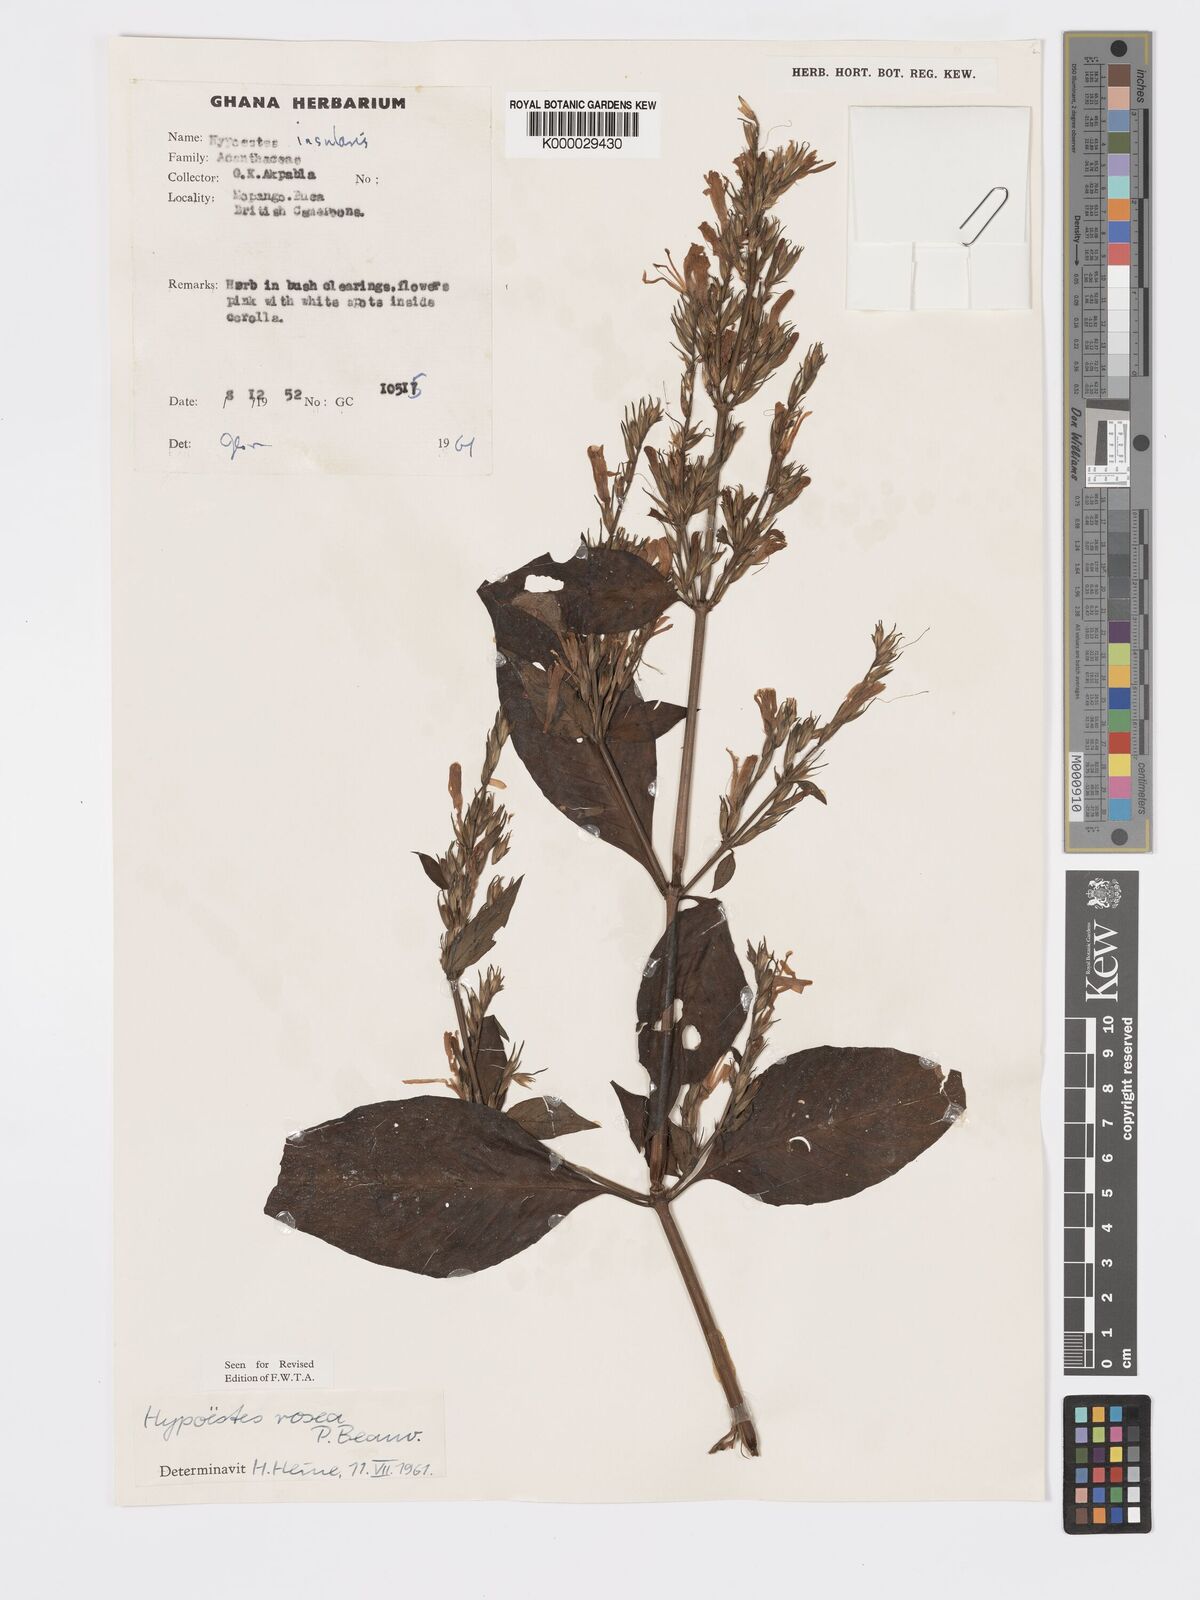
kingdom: Plantae
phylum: Tracheophyta
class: Magnoliopsida
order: Lamiales
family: Acanthaceae
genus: Hypoestes
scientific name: Hypoestes rosea
